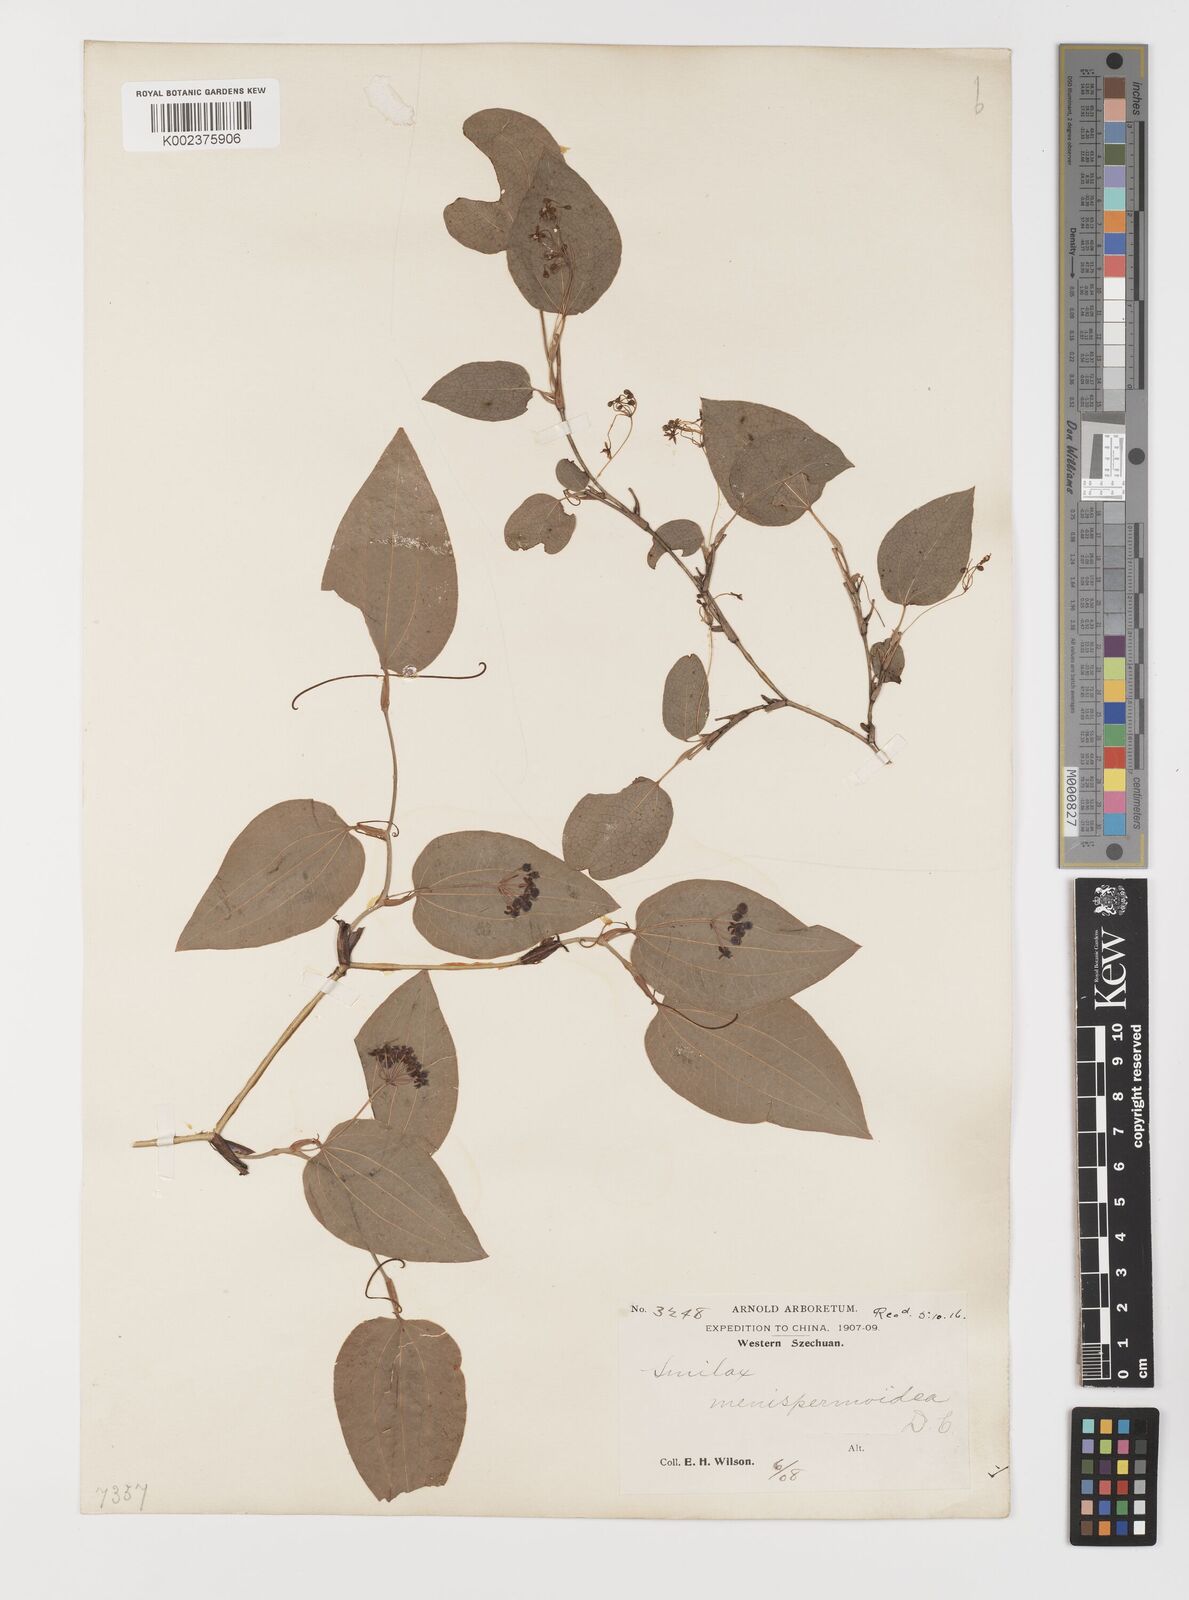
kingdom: Plantae
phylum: Tracheophyta
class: Liliopsida
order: Liliales
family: Smilacaceae
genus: Smilax
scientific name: Smilax menispermoidea
